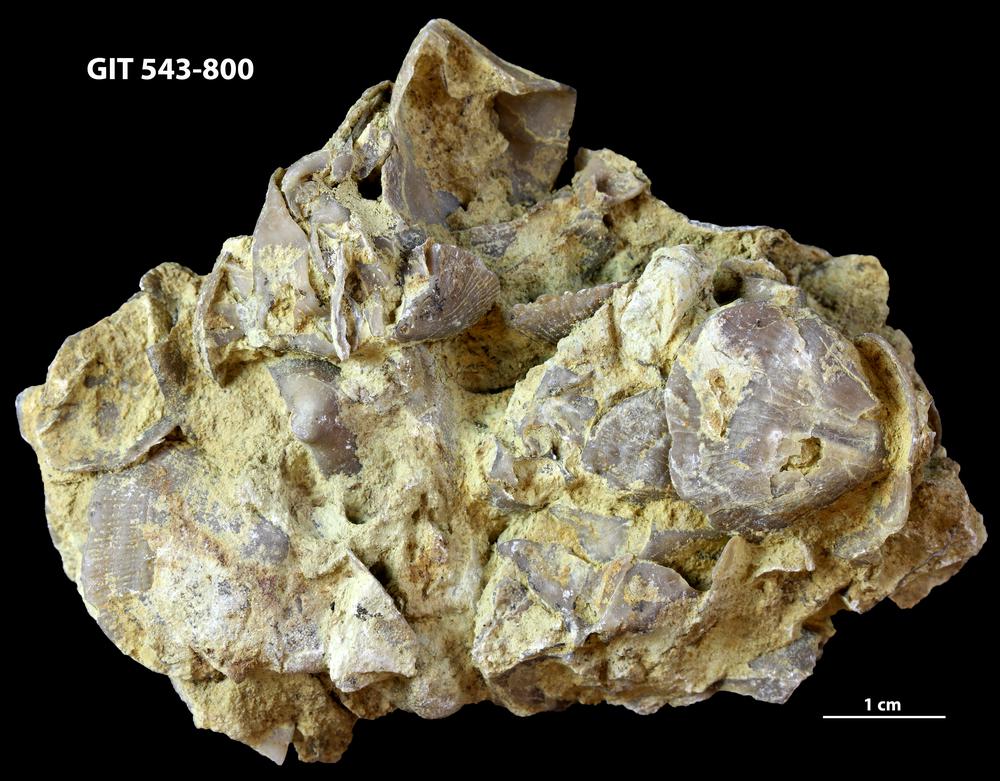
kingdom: Animalia
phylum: Brachiopoda
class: Rhynchonellata
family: Clitambonitidae
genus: Vellamo
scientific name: Vellamo
